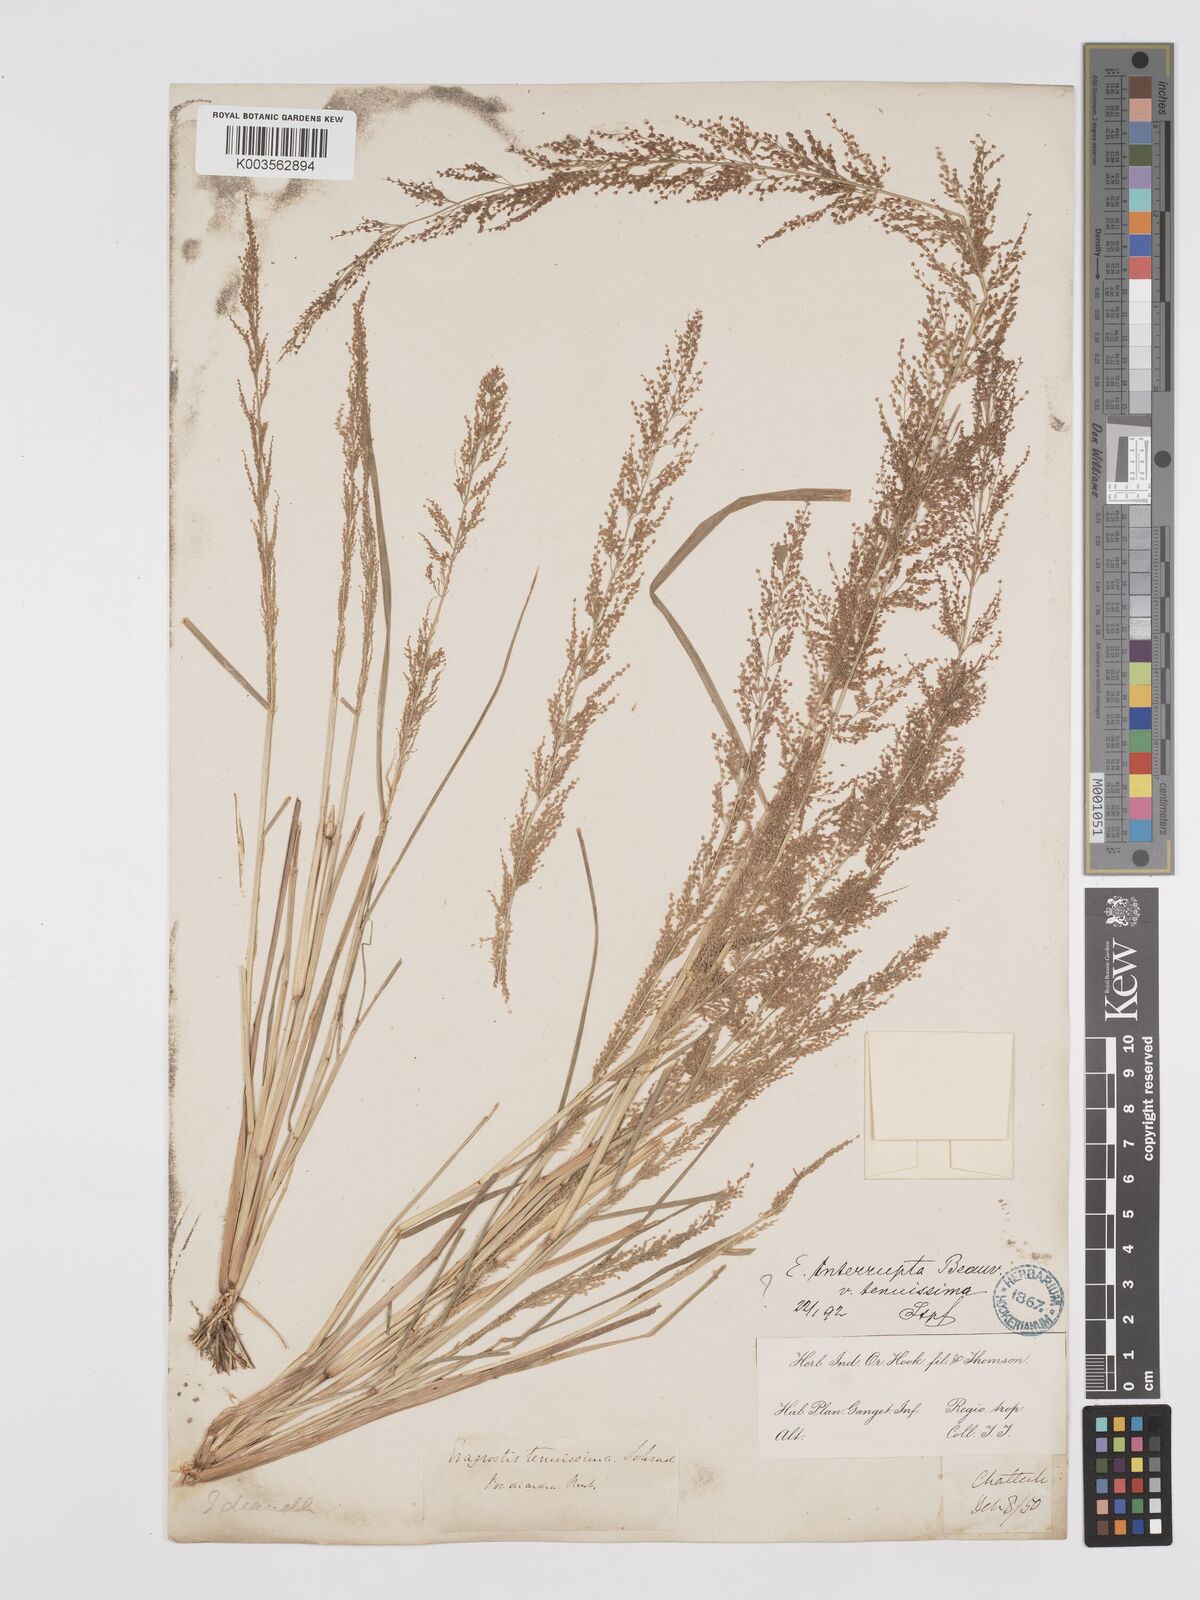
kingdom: Plantae
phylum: Tracheophyta
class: Liliopsida
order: Poales
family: Poaceae
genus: Eragrostis
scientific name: Eragrostis japonica
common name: Pond lovegrass
